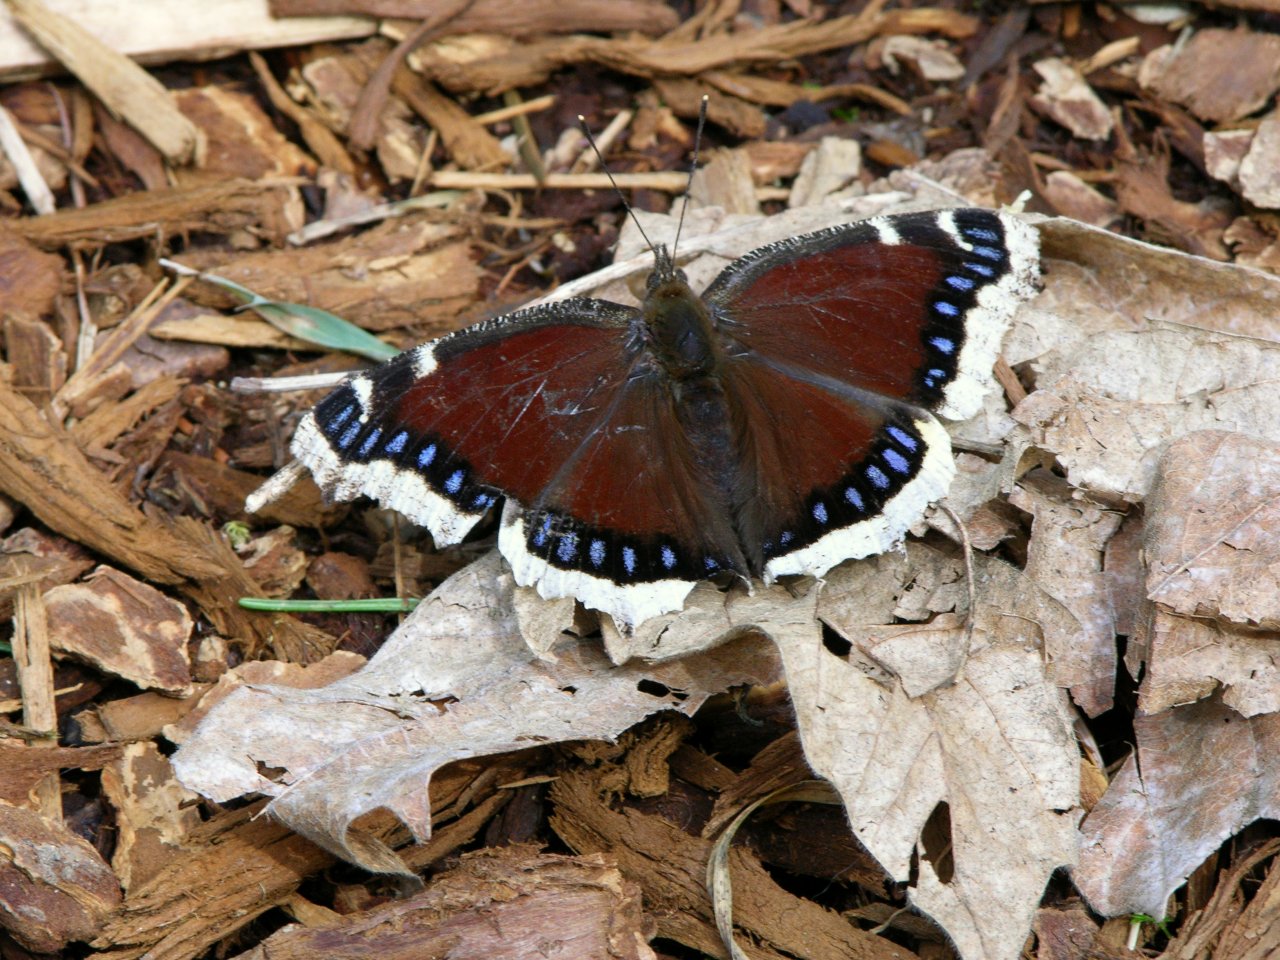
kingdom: Animalia
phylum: Arthropoda
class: Insecta
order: Lepidoptera
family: Nymphalidae
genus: Nymphalis
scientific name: Nymphalis antiopa
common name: Mourning Cloak
